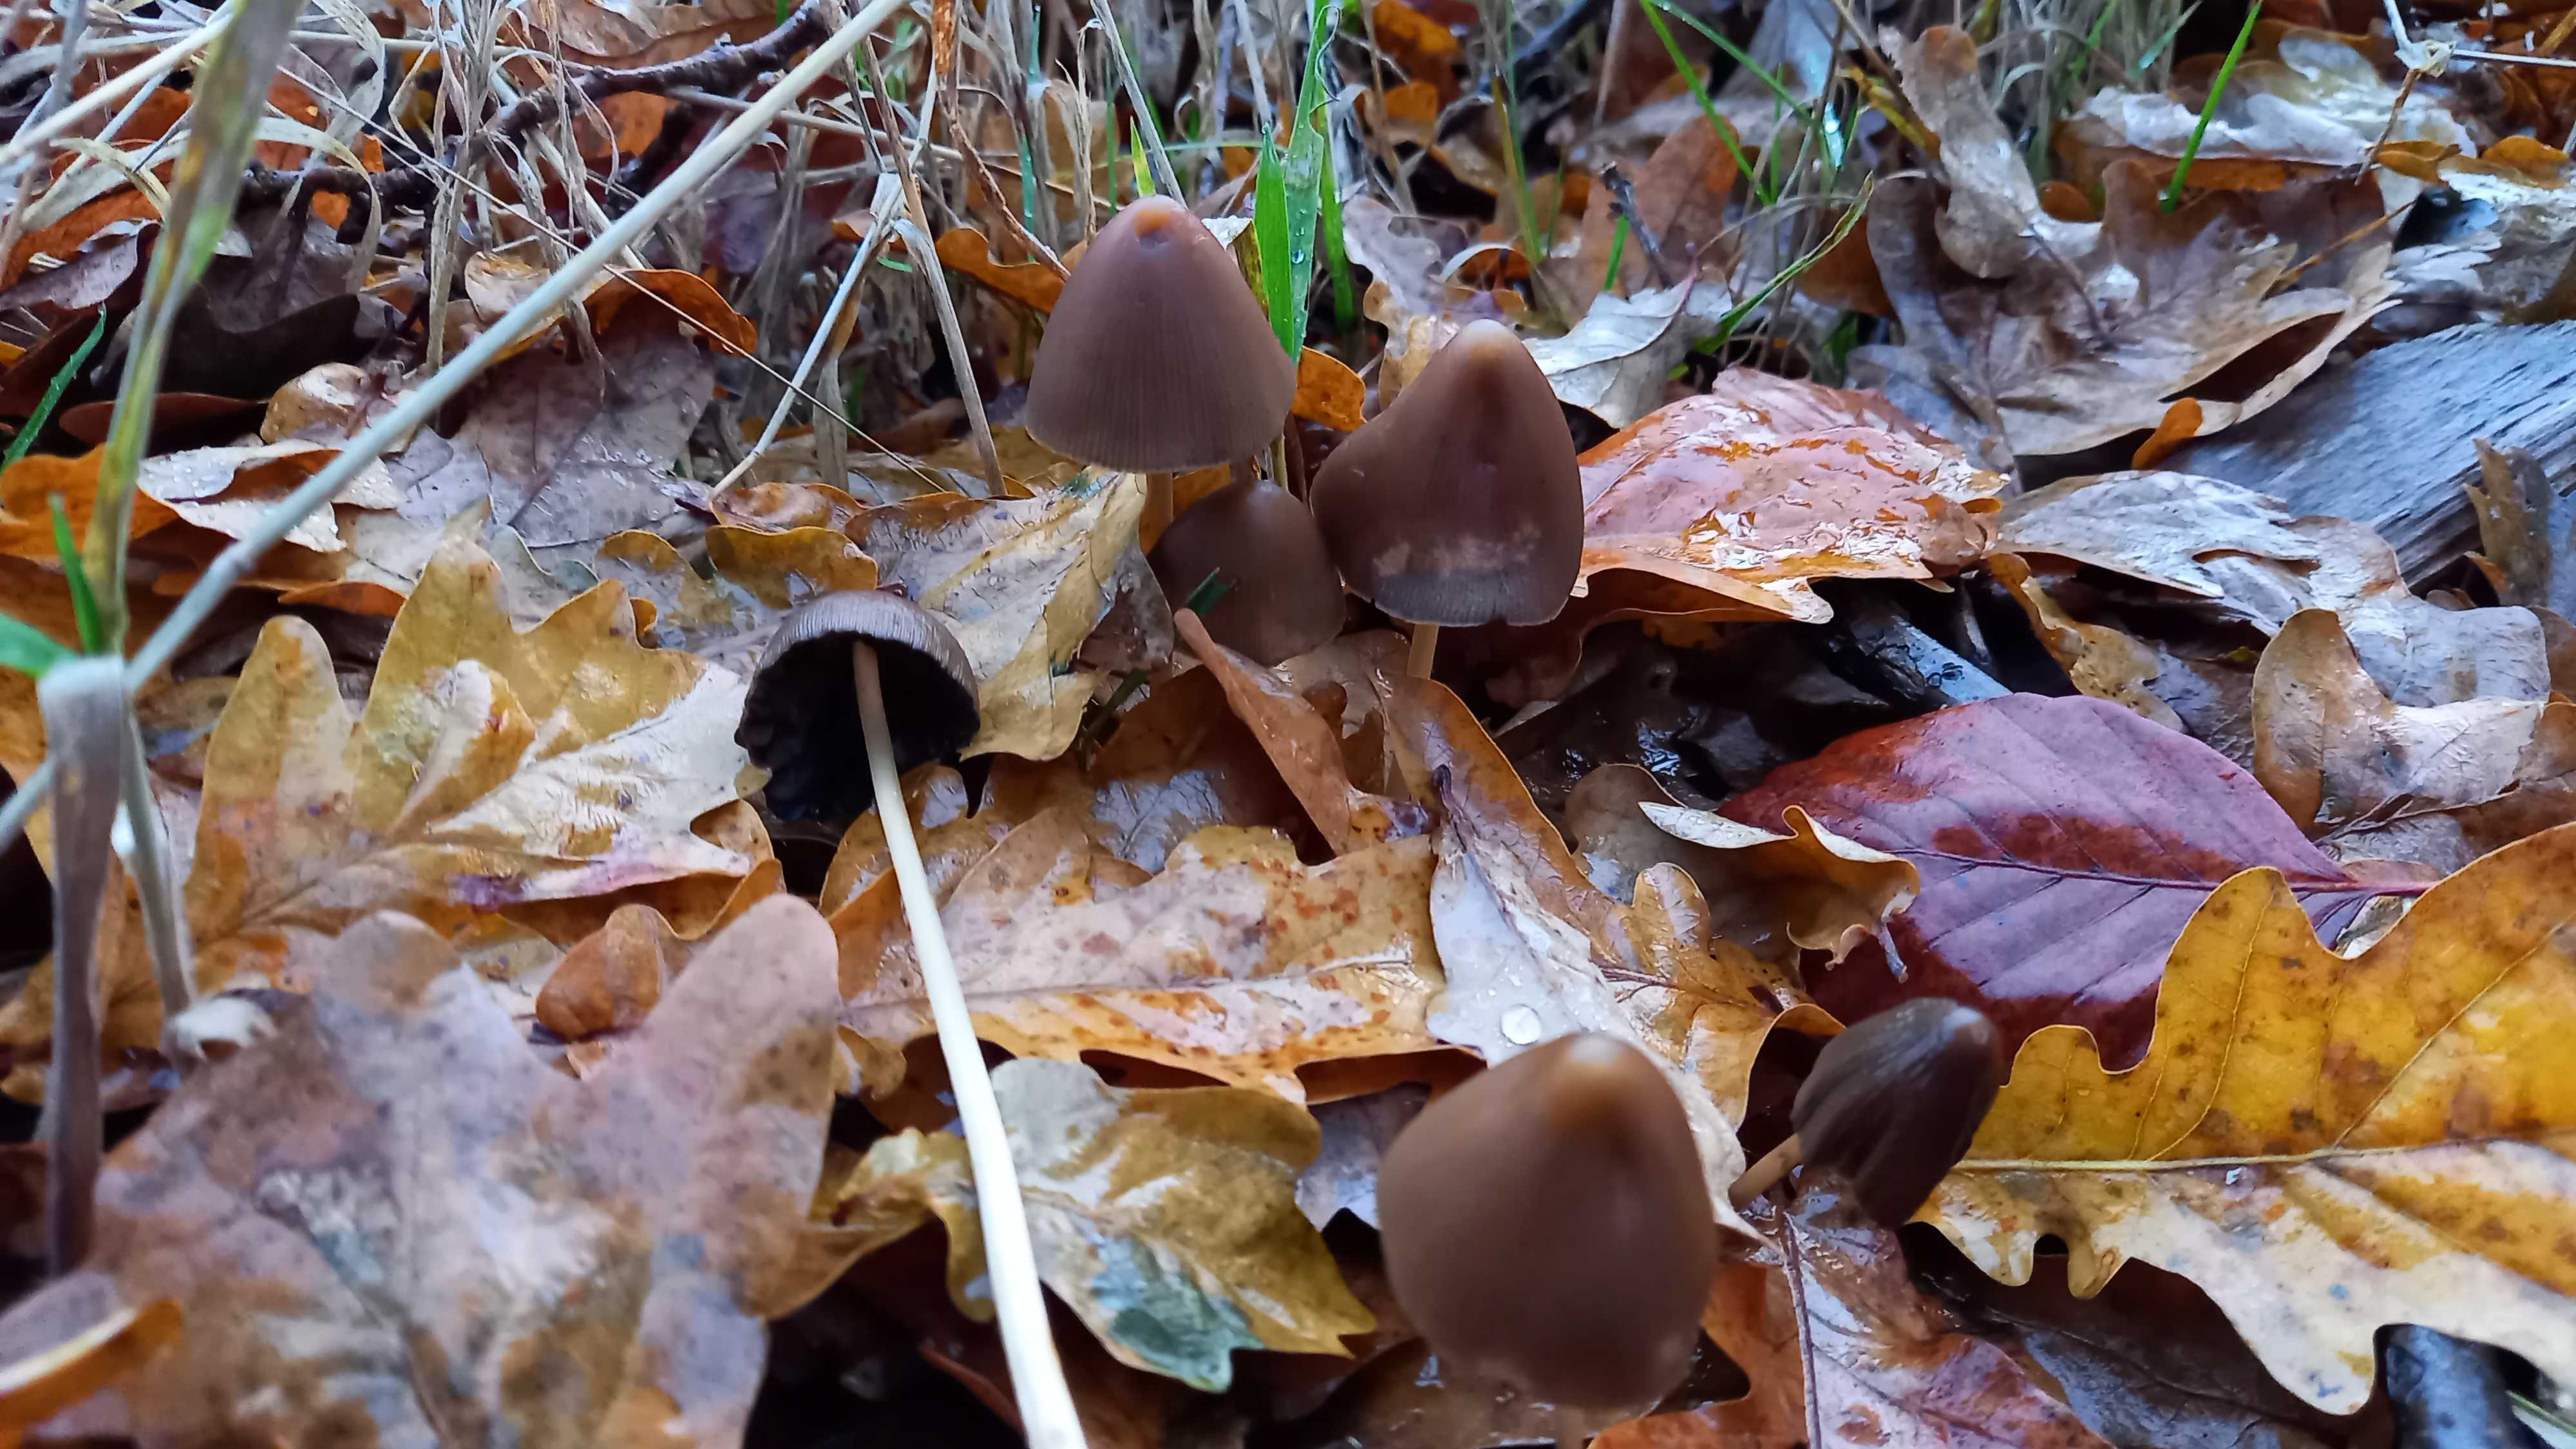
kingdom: Fungi
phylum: Basidiomycota
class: Agaricomycetes
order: Agaricales
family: Psathyrellaceae
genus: Parasola
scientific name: Parasola conopilea
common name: kegle-hjulhat
